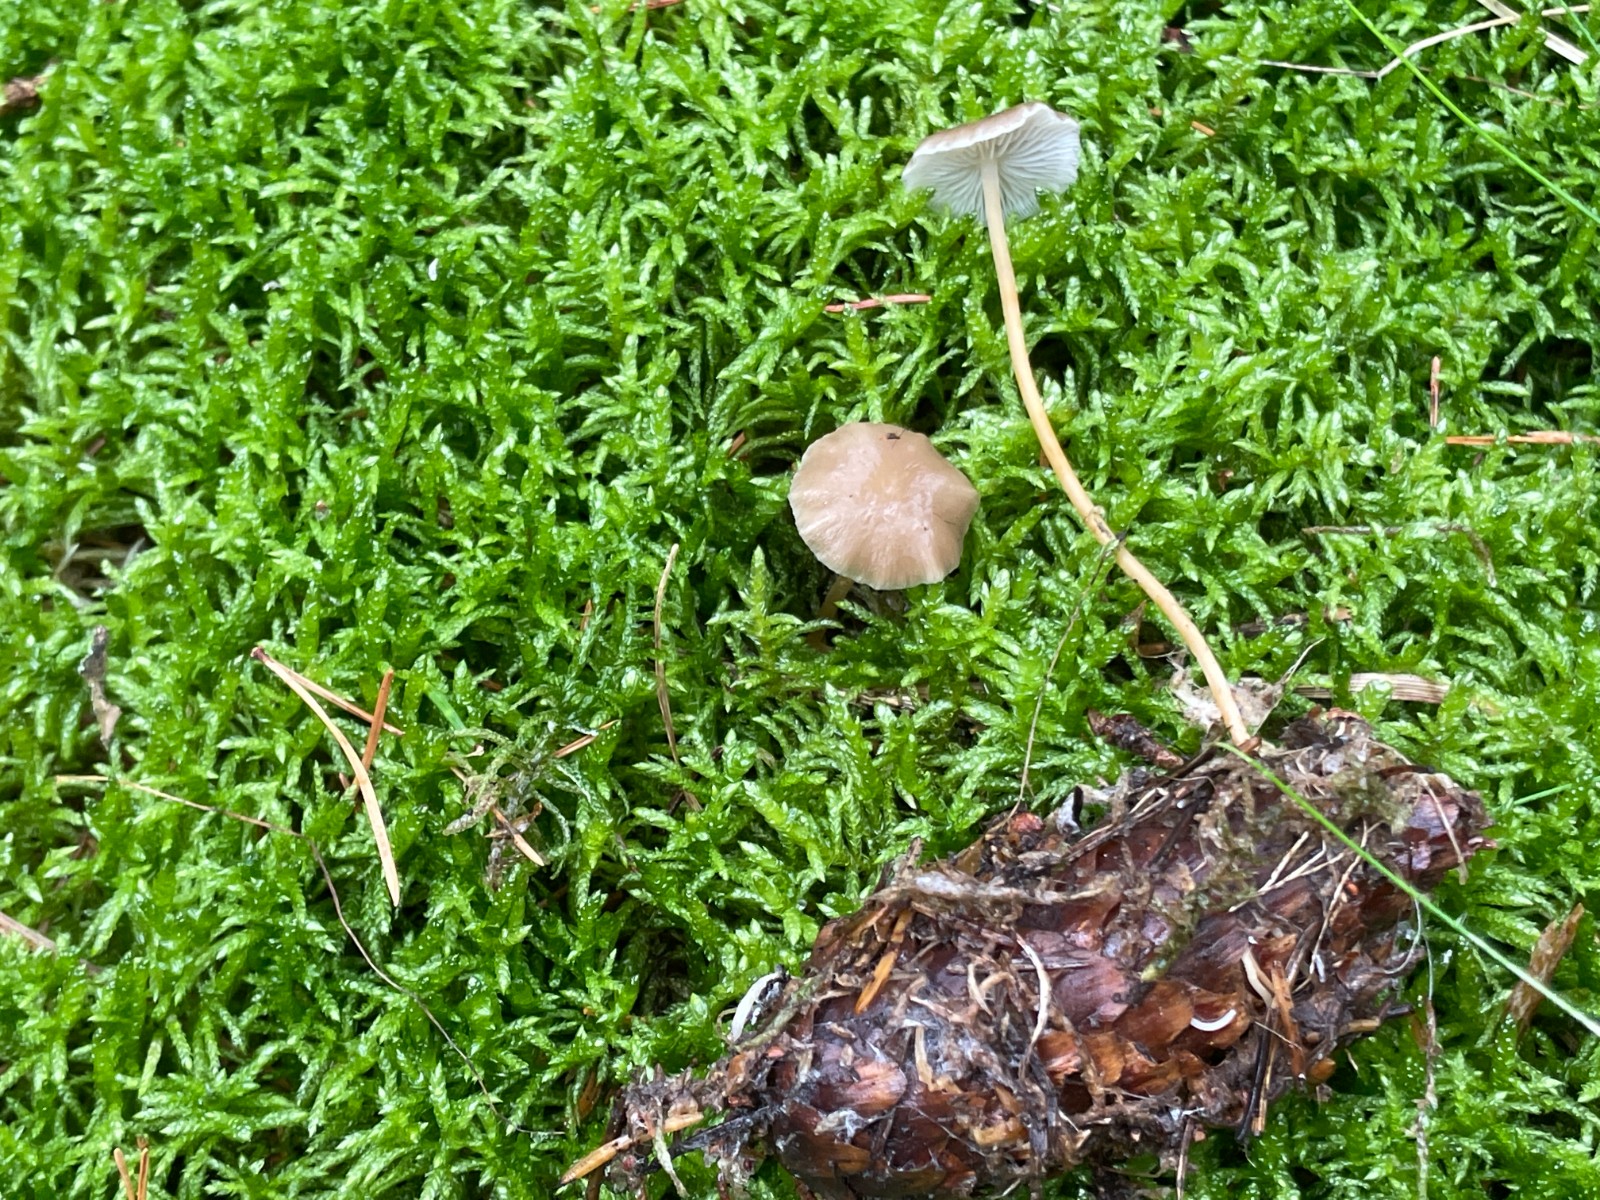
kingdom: Fungi
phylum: Basidiomycota
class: Agaricomycetes
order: Agaricales
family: Physalacriaceae
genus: Strobilurus
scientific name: Strobilurus esculentus
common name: gran-koglehat
